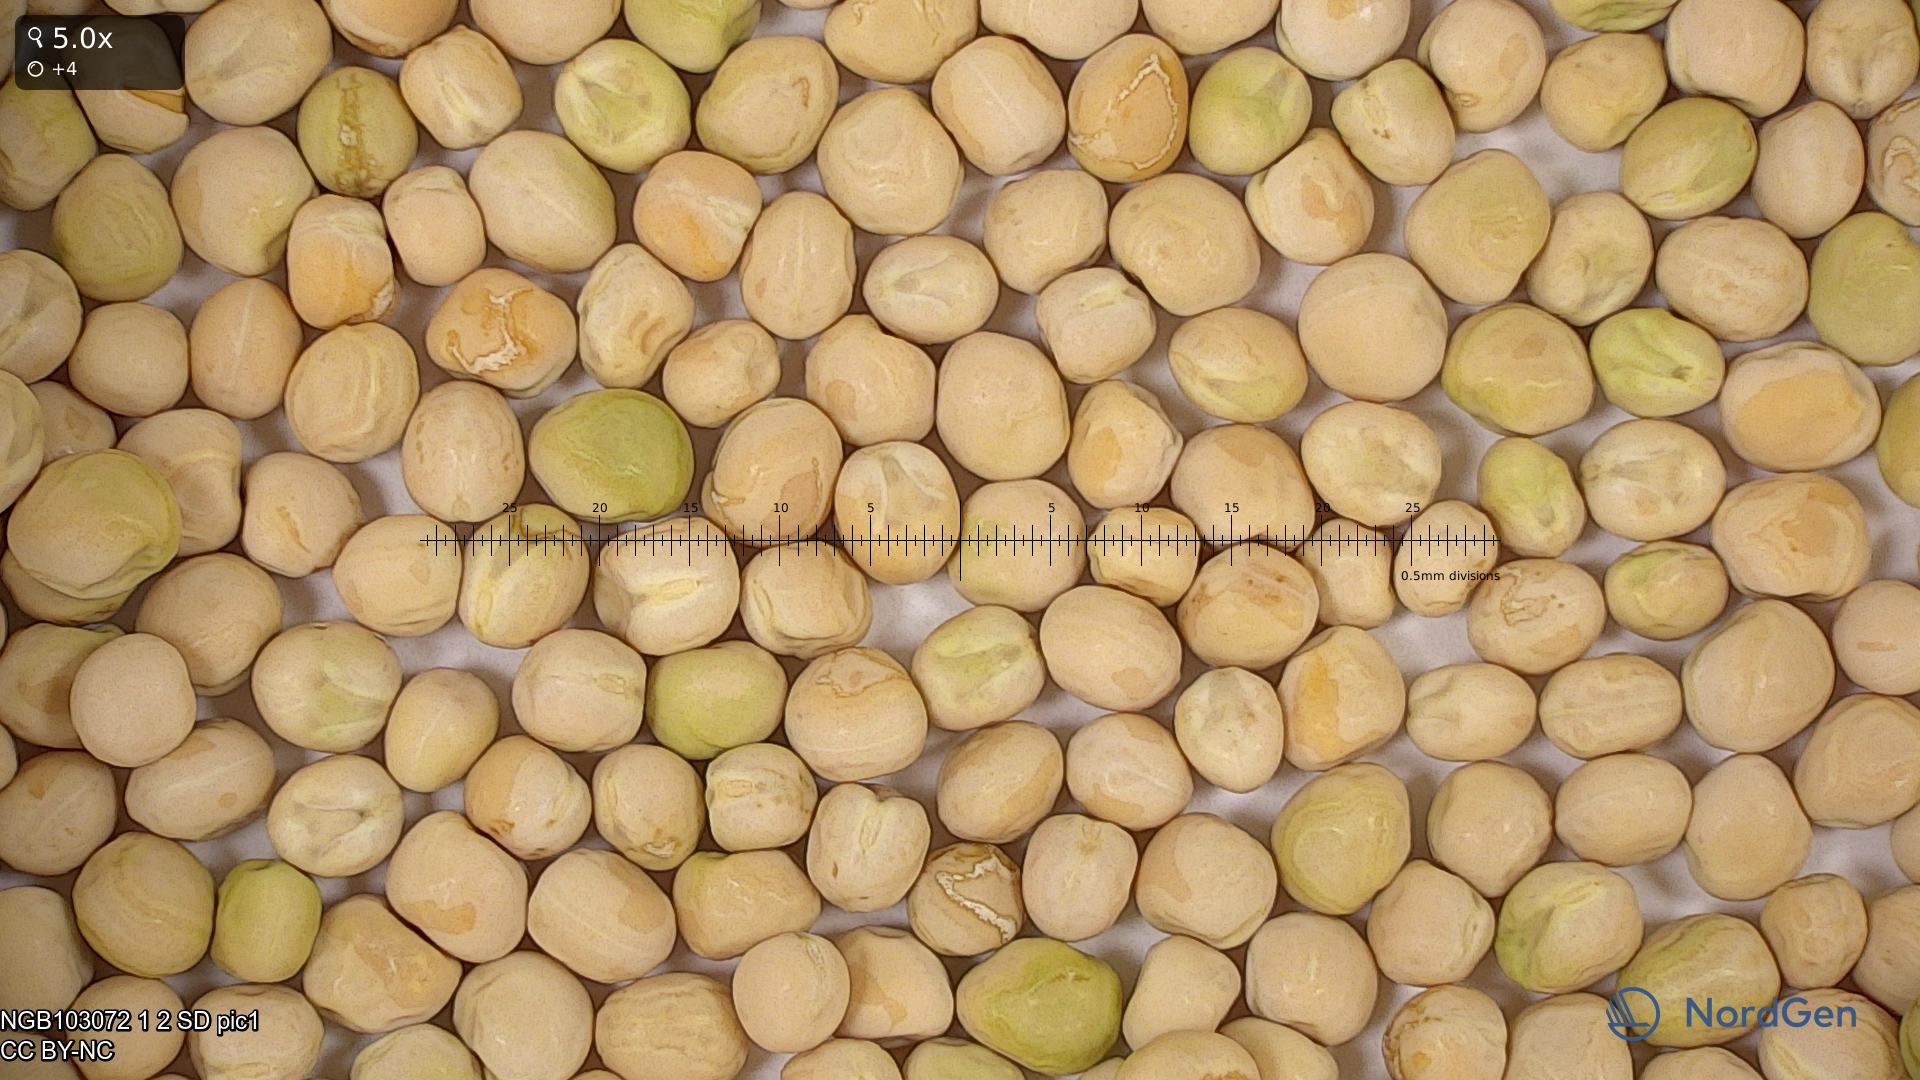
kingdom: Plantae
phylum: Tracheophyta
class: Magnoliopsida
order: Fabales
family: Fabaceae
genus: Lathyrus
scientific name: Lathyrus oleraceus
